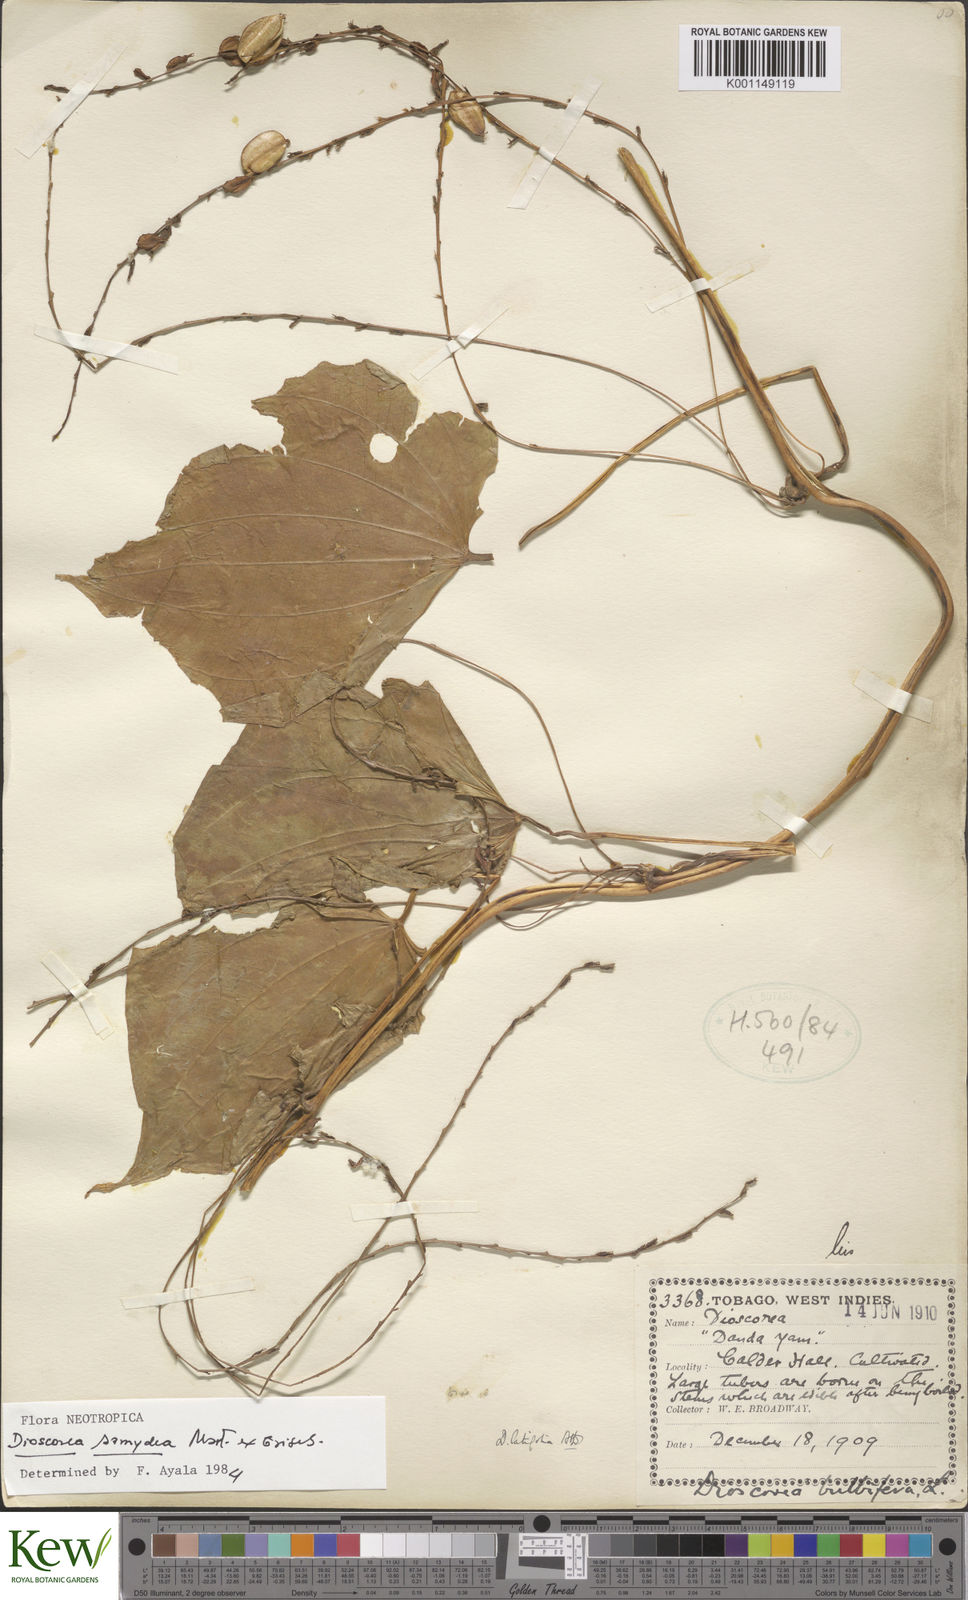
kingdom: Plantae
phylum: Tracheophyta
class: Liliopsida
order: Dioscoreales
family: Dioscoreaceae
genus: Dioscorea
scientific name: Dioscorea chondrocarpa
